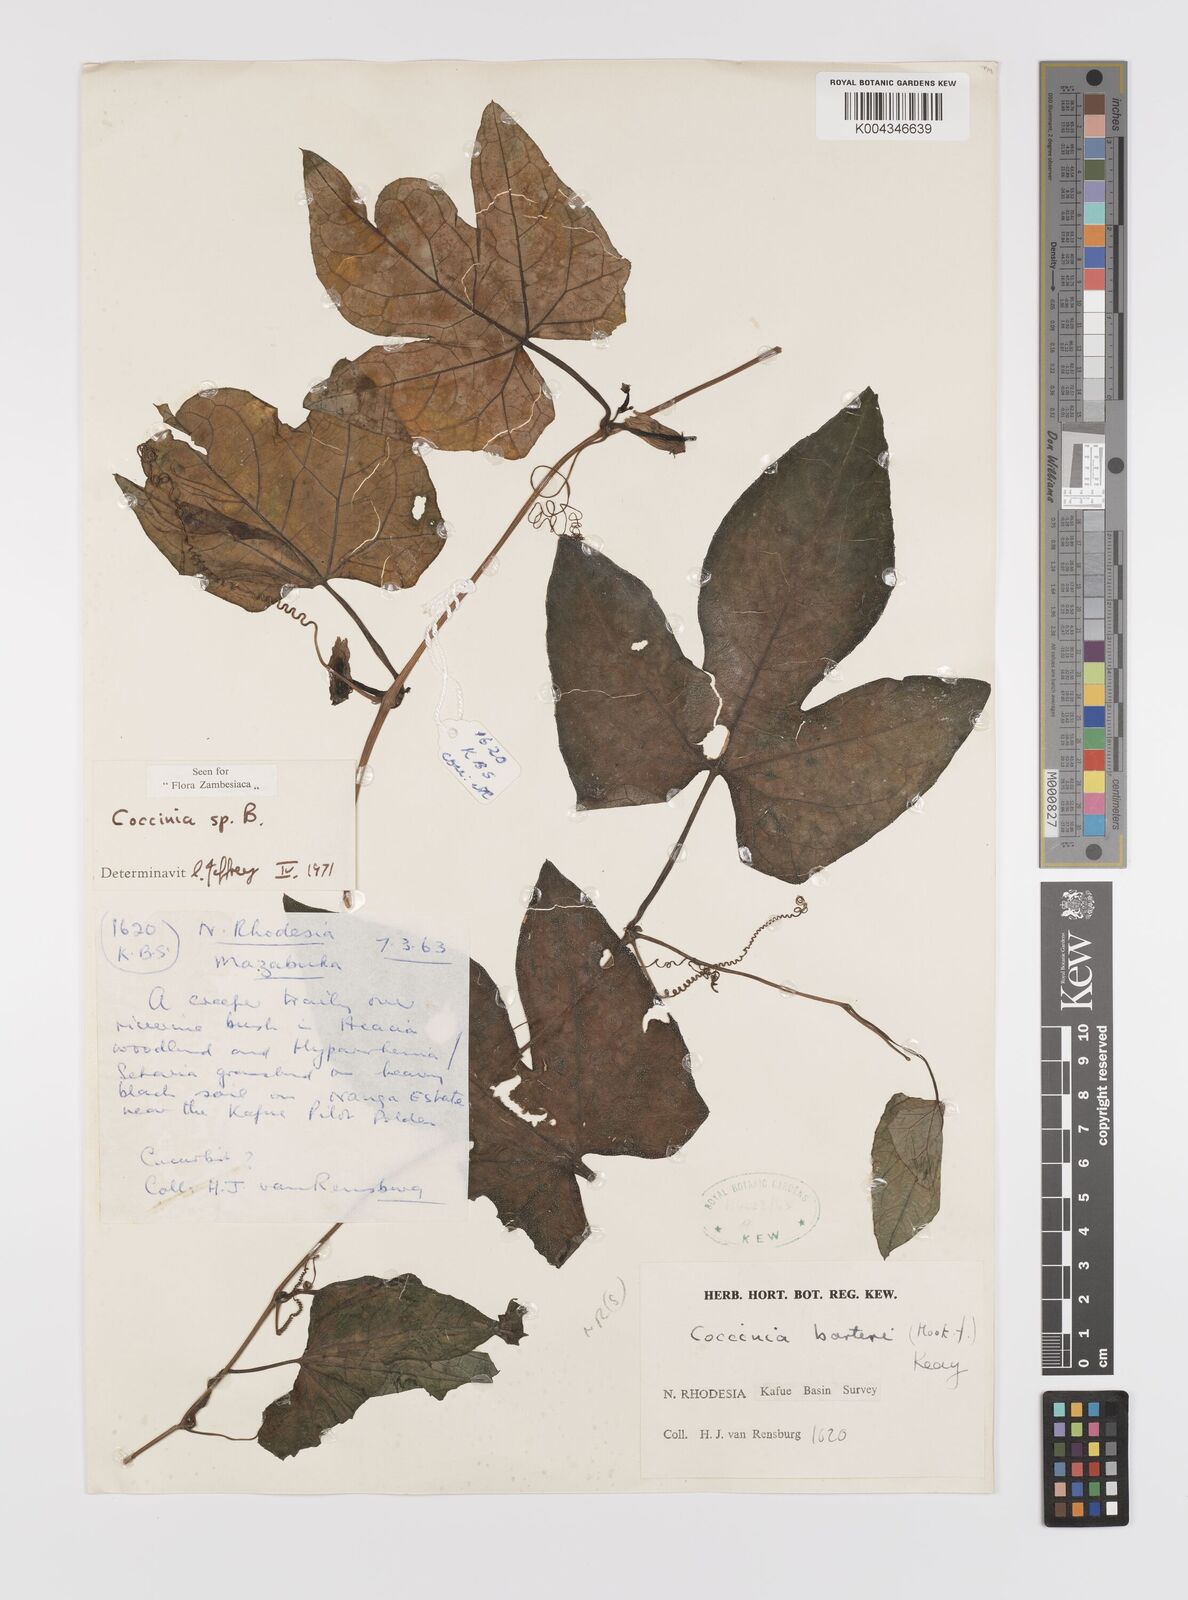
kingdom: Plantae
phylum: Tracheophyta
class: Magnoliopsida
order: Cucurbitales
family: Cucurbitaceae
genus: Coccinia
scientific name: Coccinia
